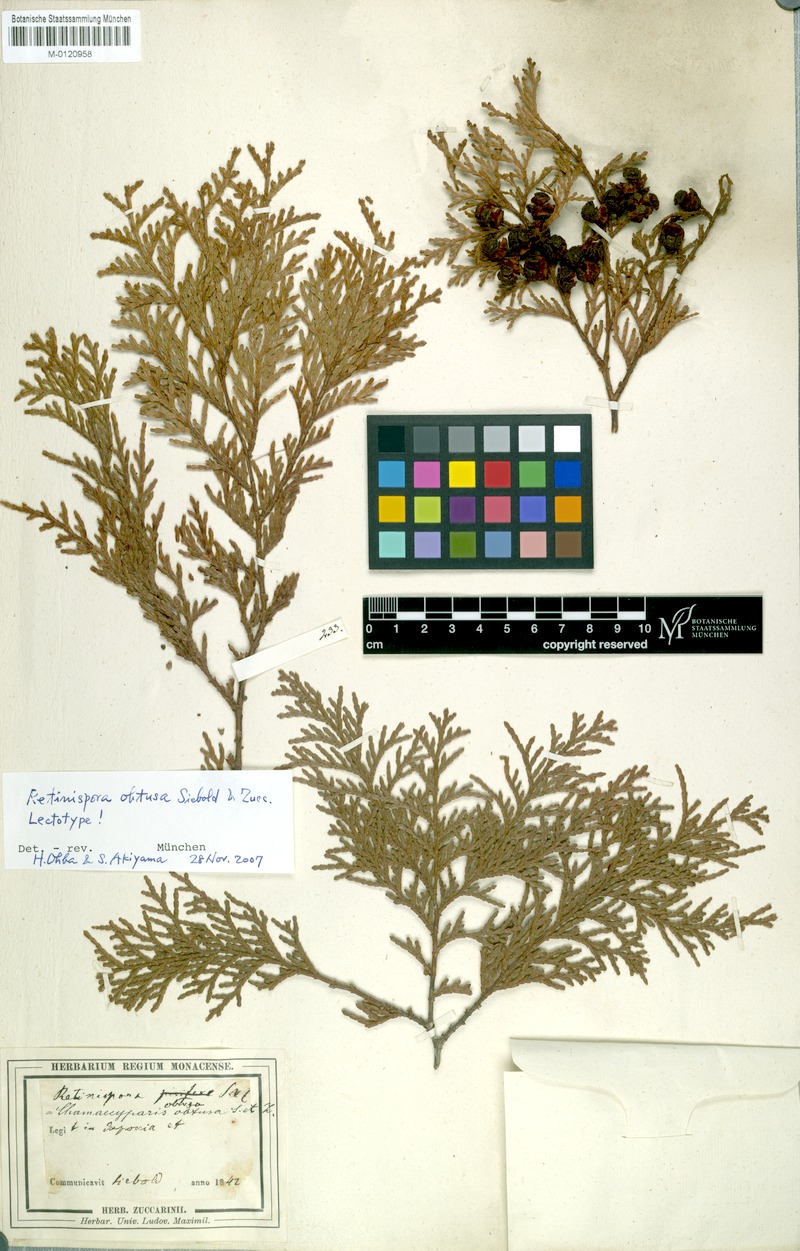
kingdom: Plantae
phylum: Tracheophyta
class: Pinopsida
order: Pinales
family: Cupressaceae
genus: Chamaecyparis
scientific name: Chamaecyparis obtusa
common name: Hinoki false cypress
